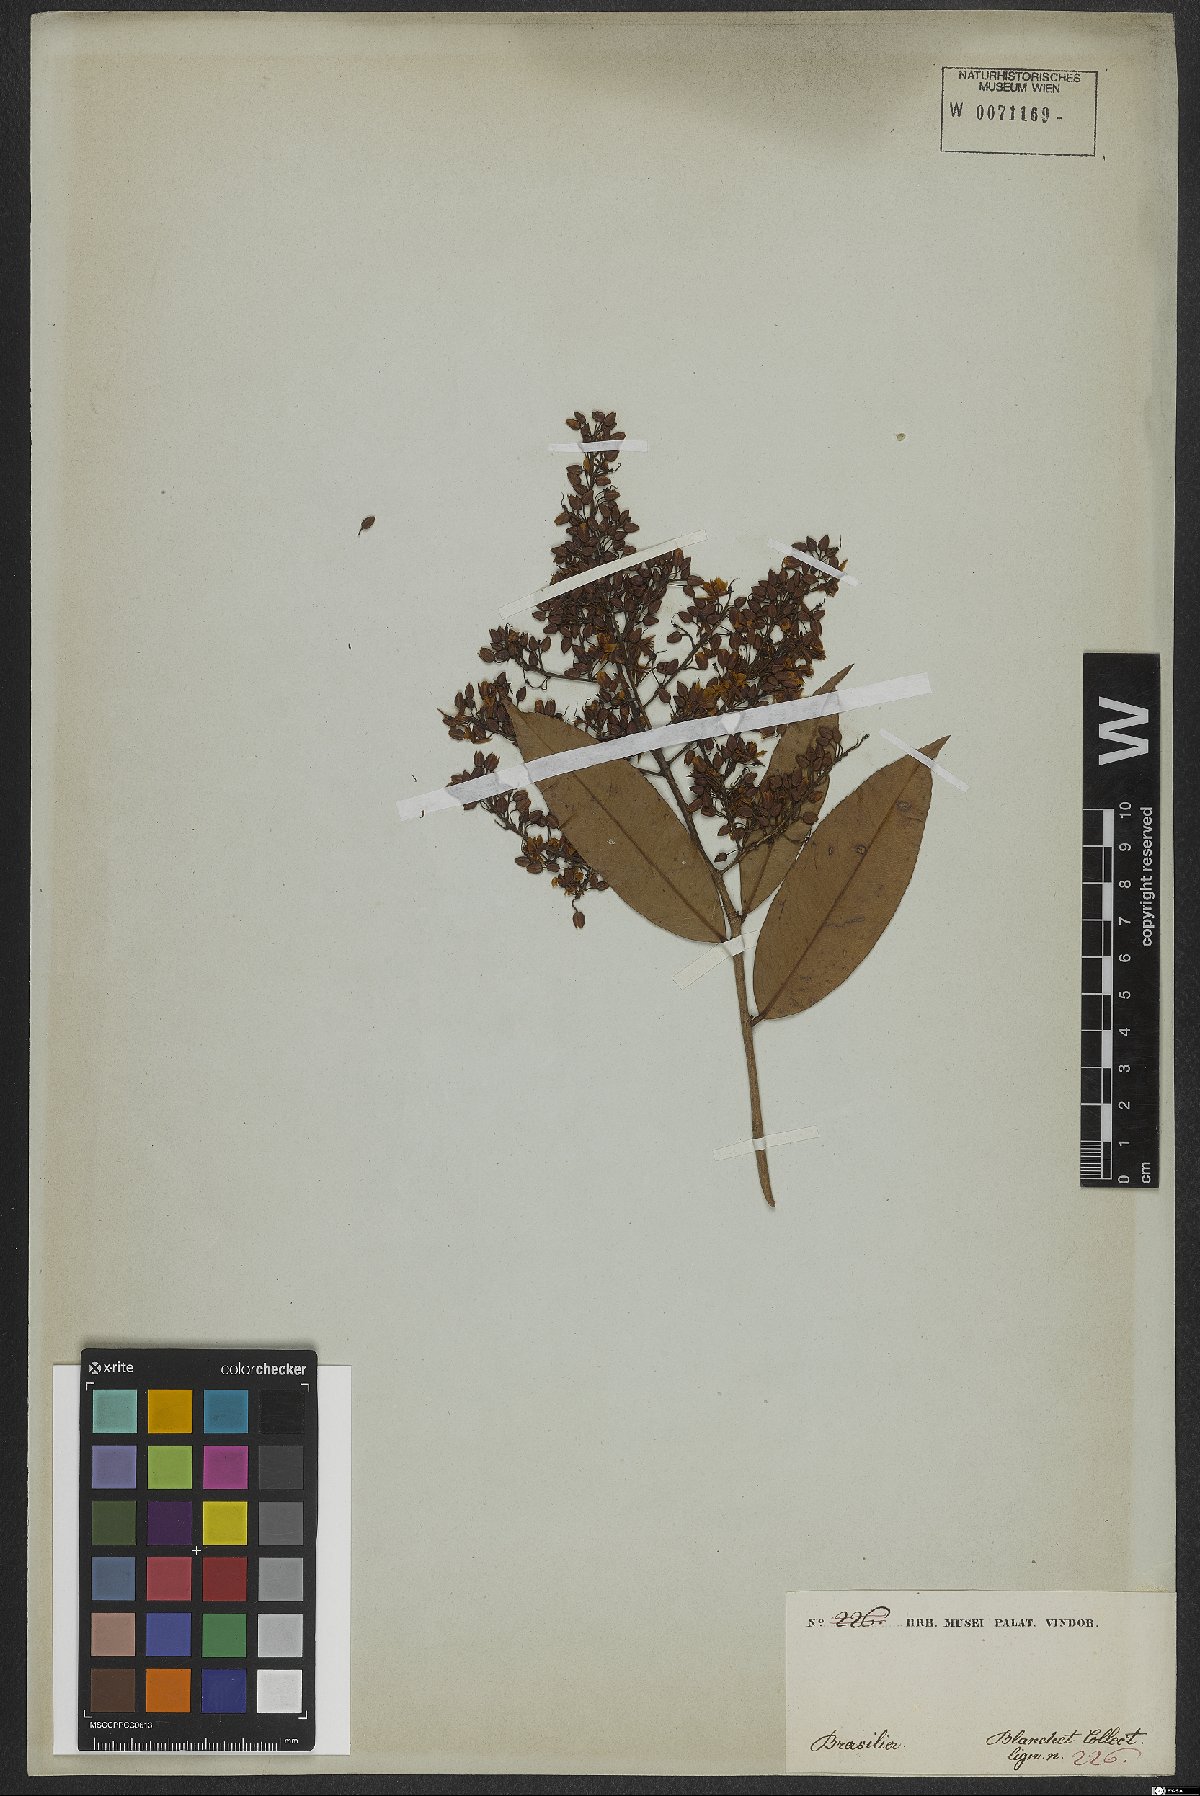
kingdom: Plantae
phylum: Tracheophyta
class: Magnoliopsida
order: Malpighiales
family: Ochnaceae
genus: Ouratea
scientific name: Ouratea
